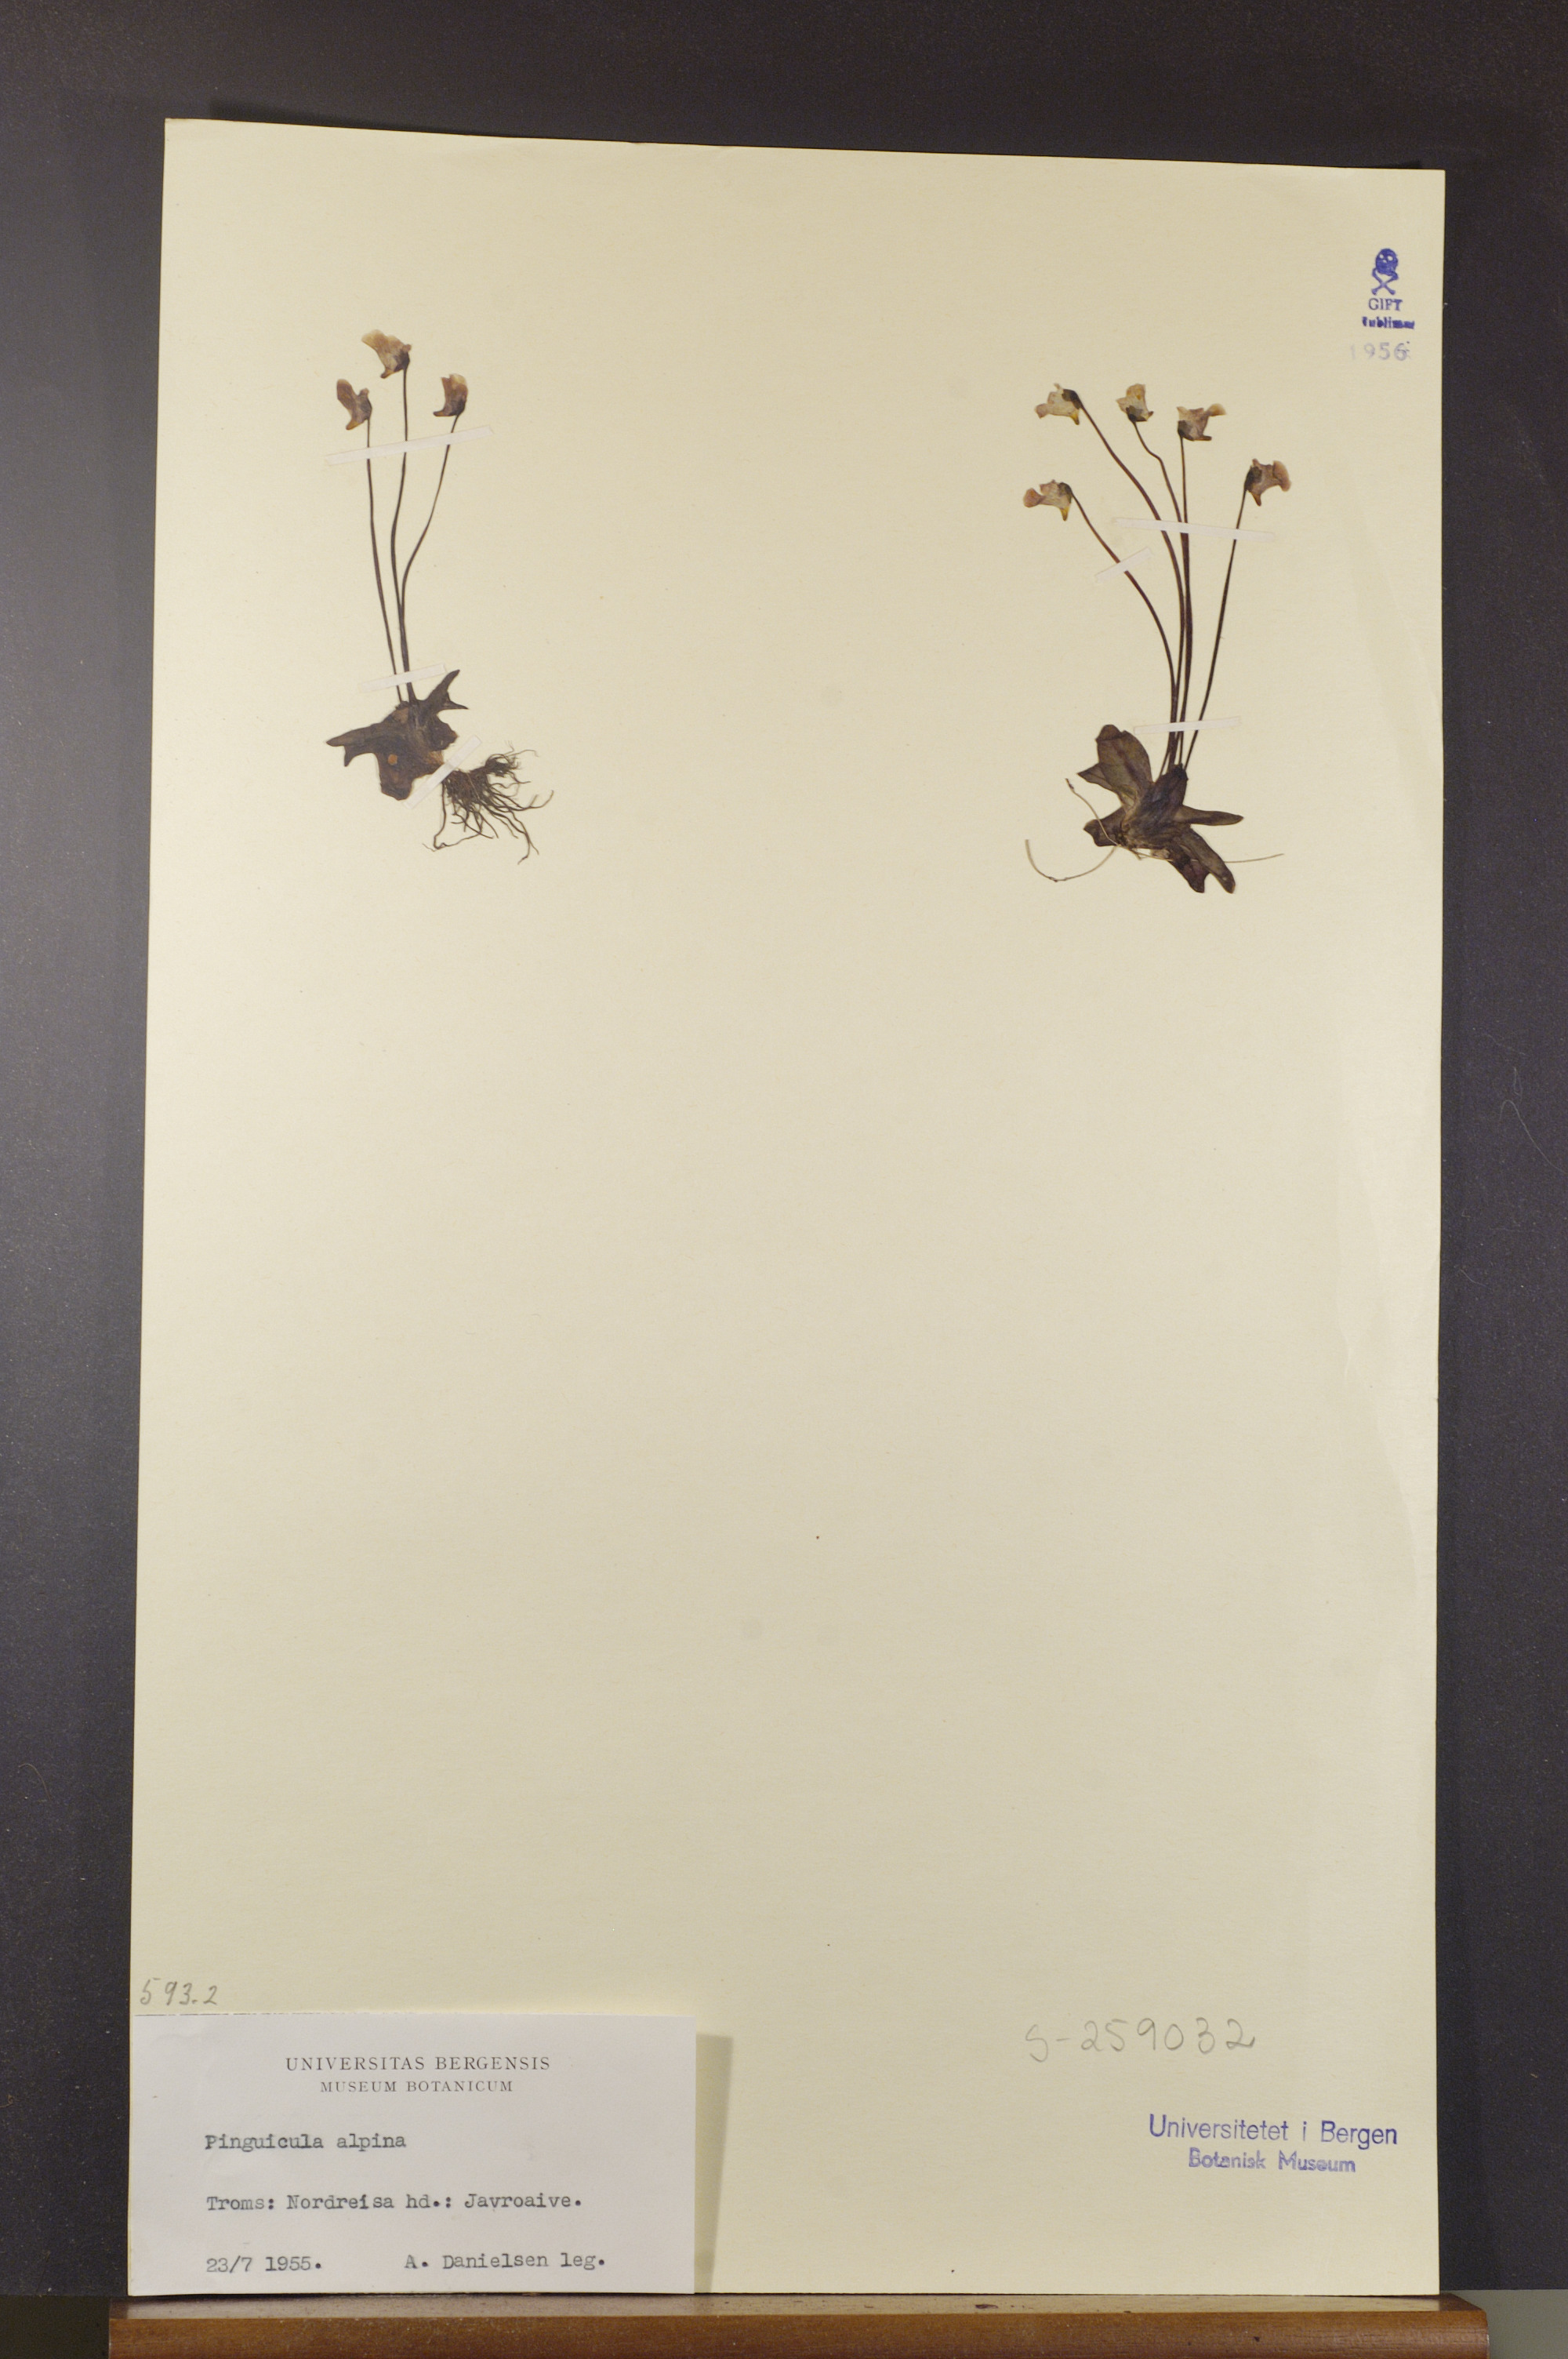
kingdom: Plantae
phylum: Tracheophyta
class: Magnoliopsida
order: Lamiales
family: Lentibulariaceae
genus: Pinguicula
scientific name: Pinguicula alpina
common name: Alpine butterwort
